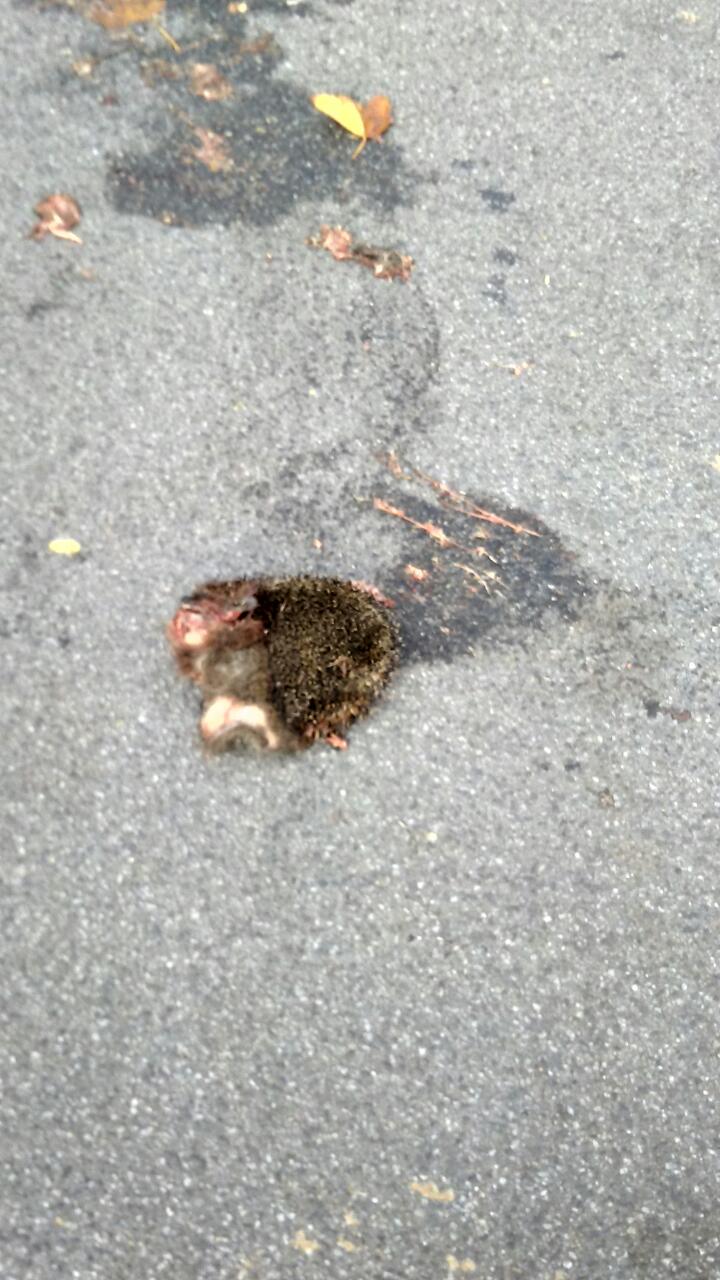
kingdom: Animalia
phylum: Chordata
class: Mammalia
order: Erinaceomorpha
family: Erinaceidae
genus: Erinaceus
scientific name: Erinaceus
